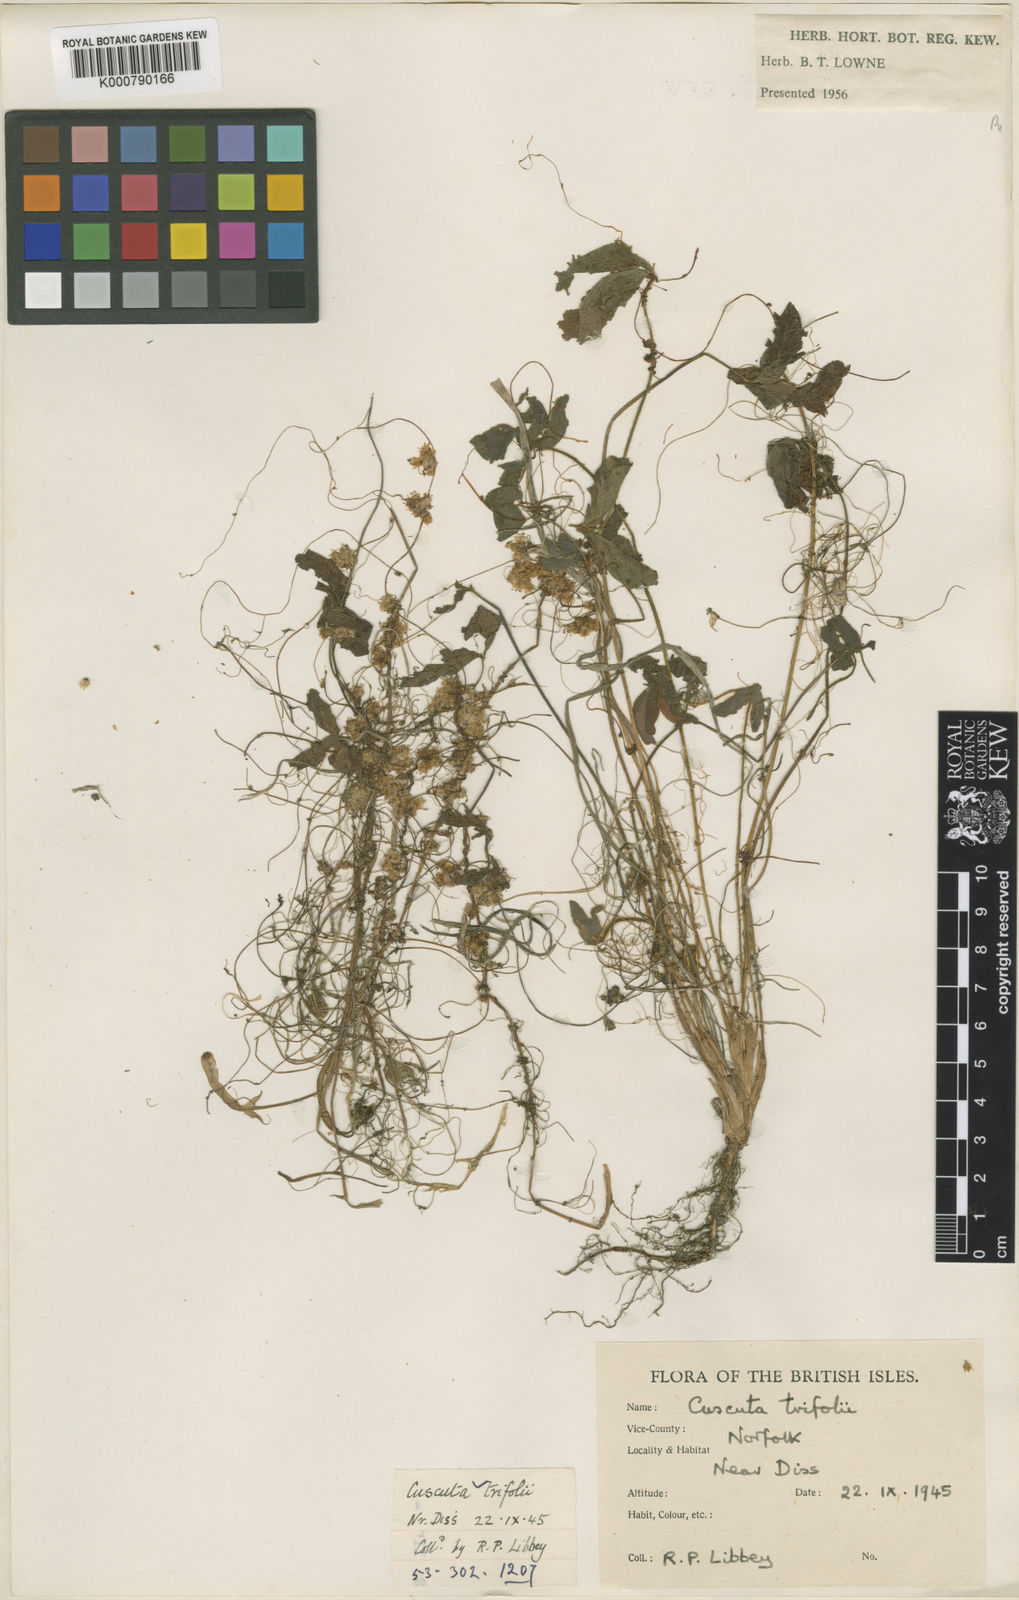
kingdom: Plantae
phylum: Tracheophyta
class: Magnoliopsida
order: Solanales
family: Convolvulaceae
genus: Cuscuta
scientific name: Cuscuta epithymum
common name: Clover dodder
